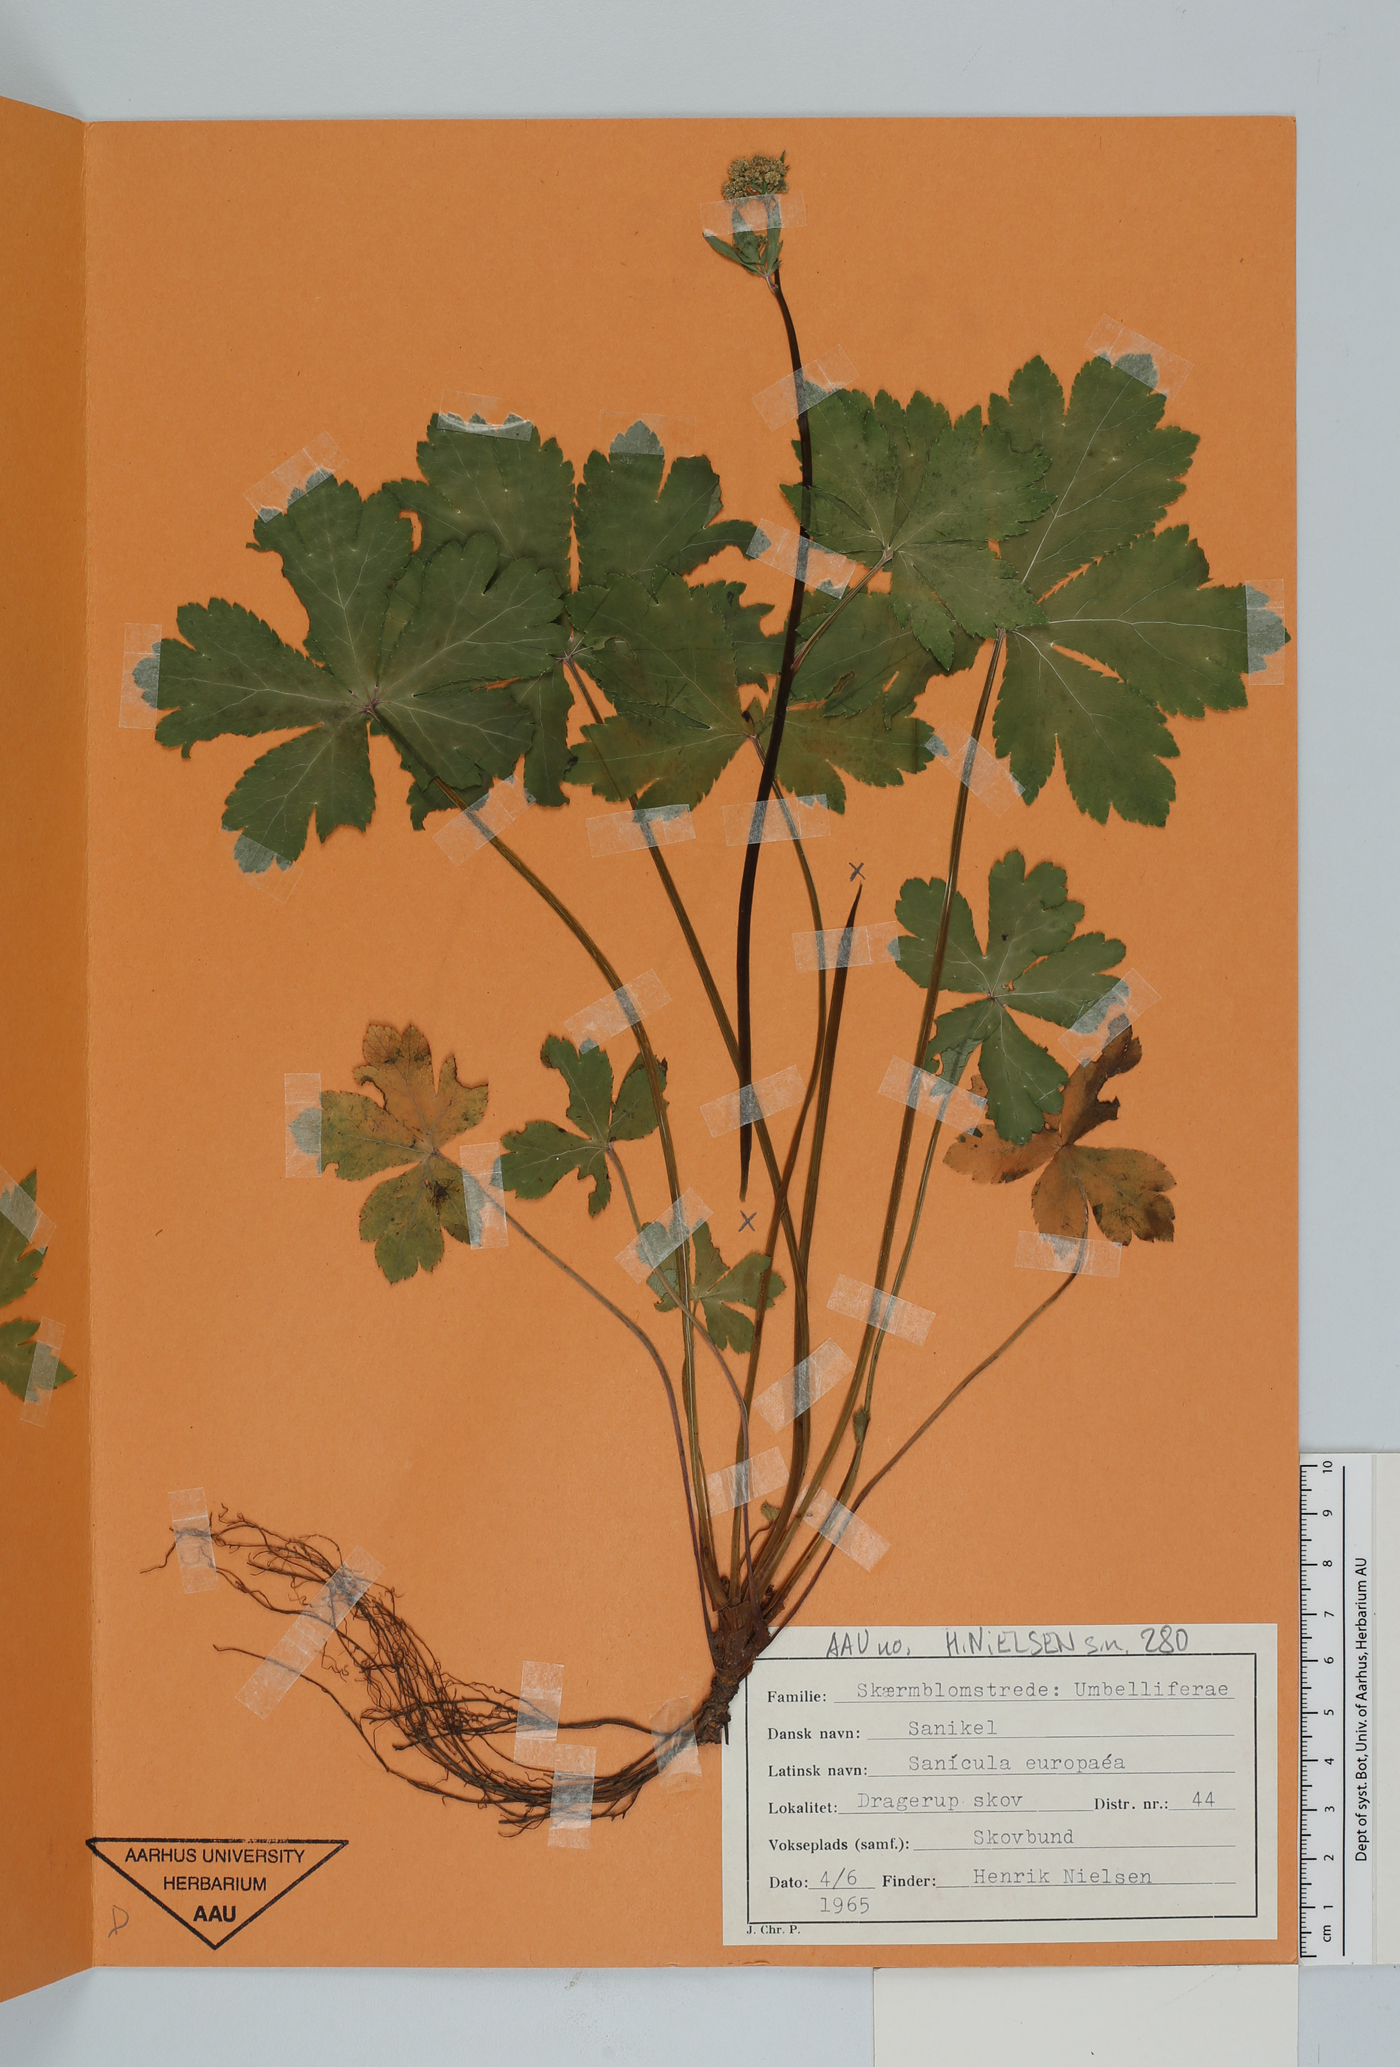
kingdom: Plantae
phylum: Tracheophyta
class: Magnoliopsida
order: Apiales
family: Apiaceae
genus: Sanicula
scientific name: Sanicula europaea
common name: Sanicle
